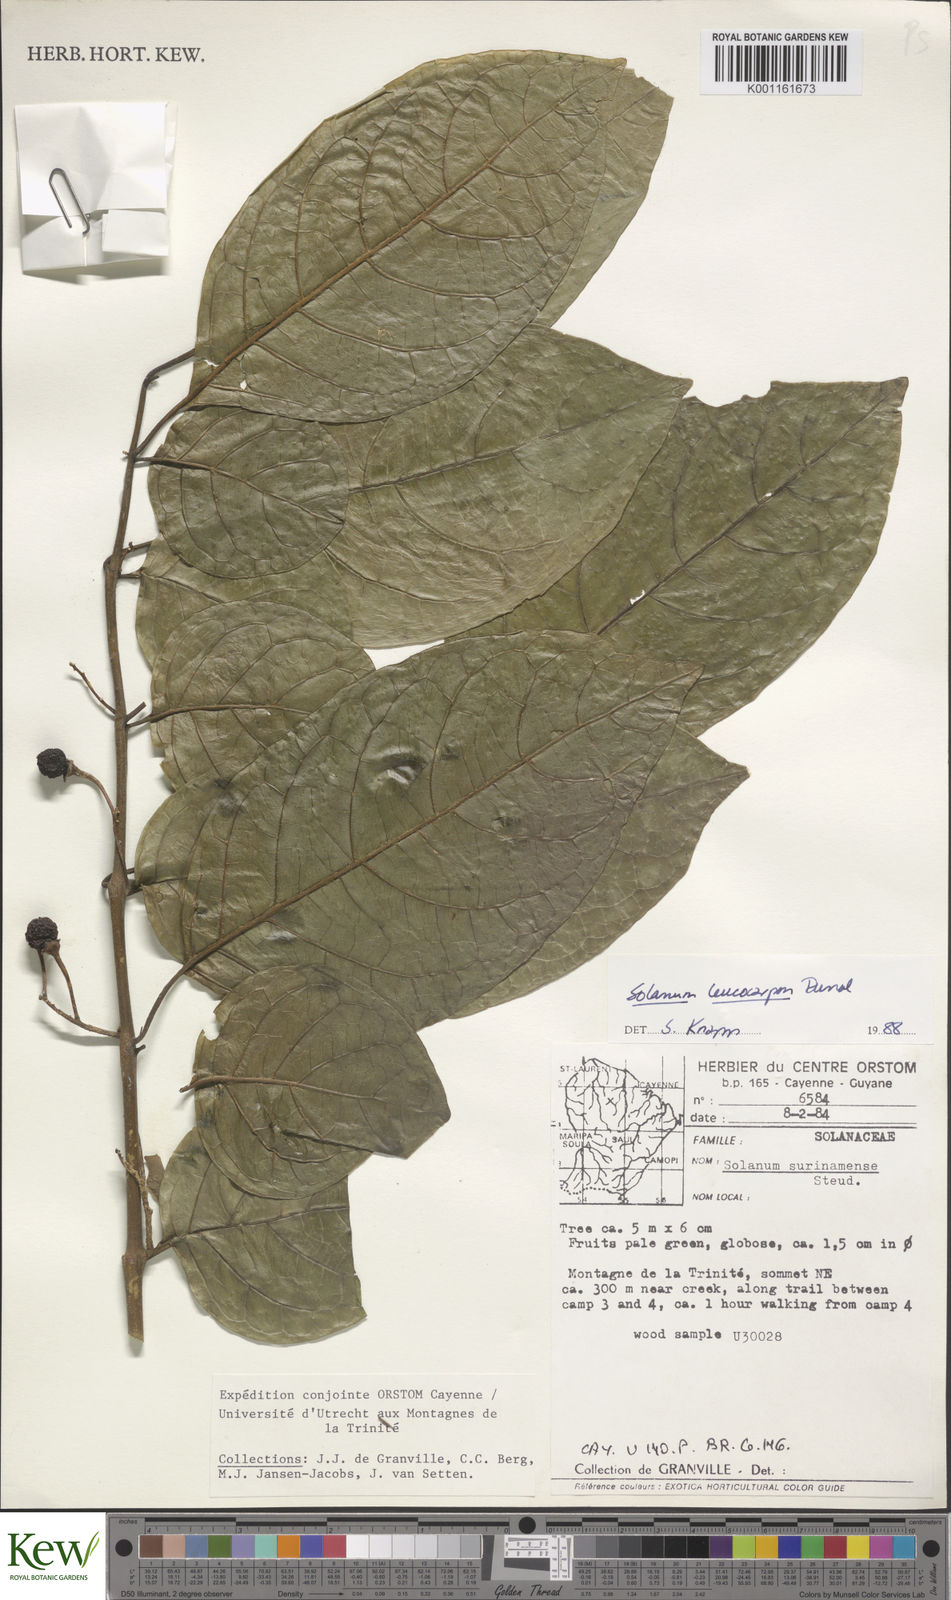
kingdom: Plantae
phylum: Tracheophyta
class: Magnoliopsida
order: Solanales
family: Solanaceae
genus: Solanum
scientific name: Solanum leucocarpon
